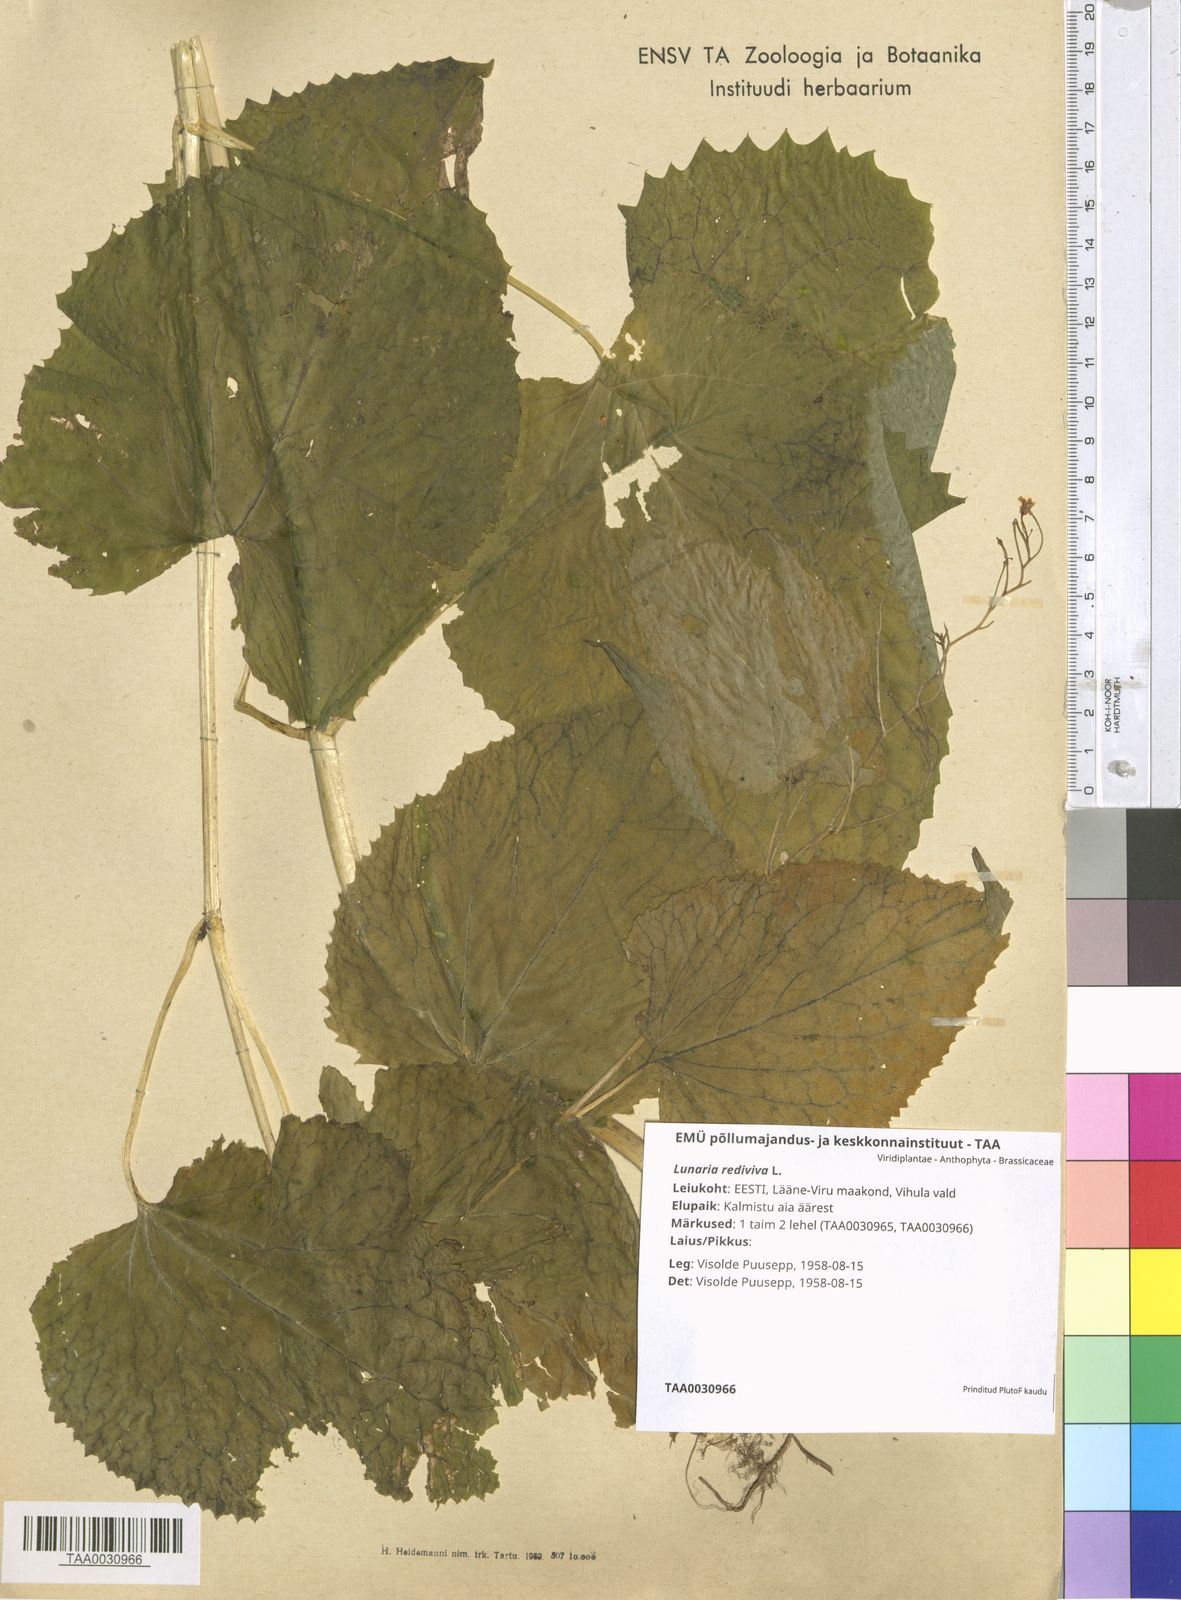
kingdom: Plantae
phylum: Tracheophyta
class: Magnoliopsida
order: Brassicales
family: Brassicaceae
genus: Lunaria
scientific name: Lunaria rediviva
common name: Perennial honesty
